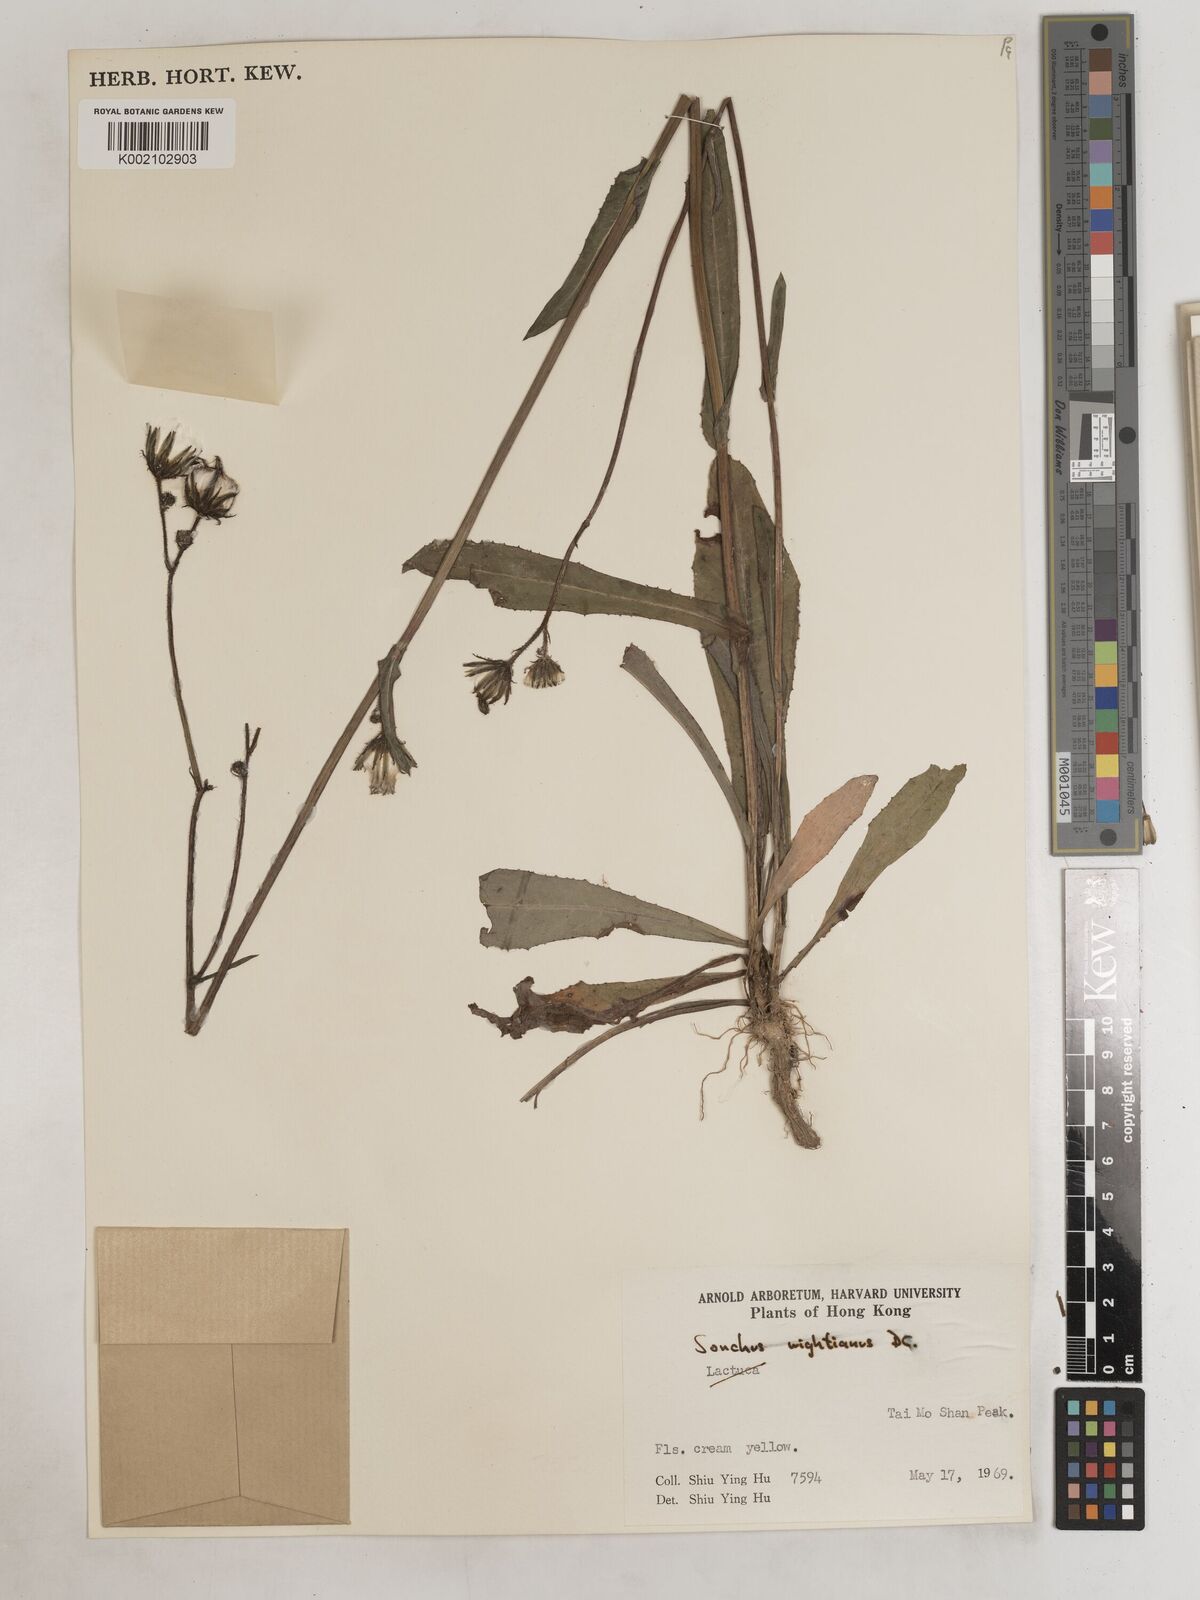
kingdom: Plantae
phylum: Tracheophyta
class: Magnoliopsida
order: Asterales
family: Asteraceae
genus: Sonchus
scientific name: Sonchus wightianus
